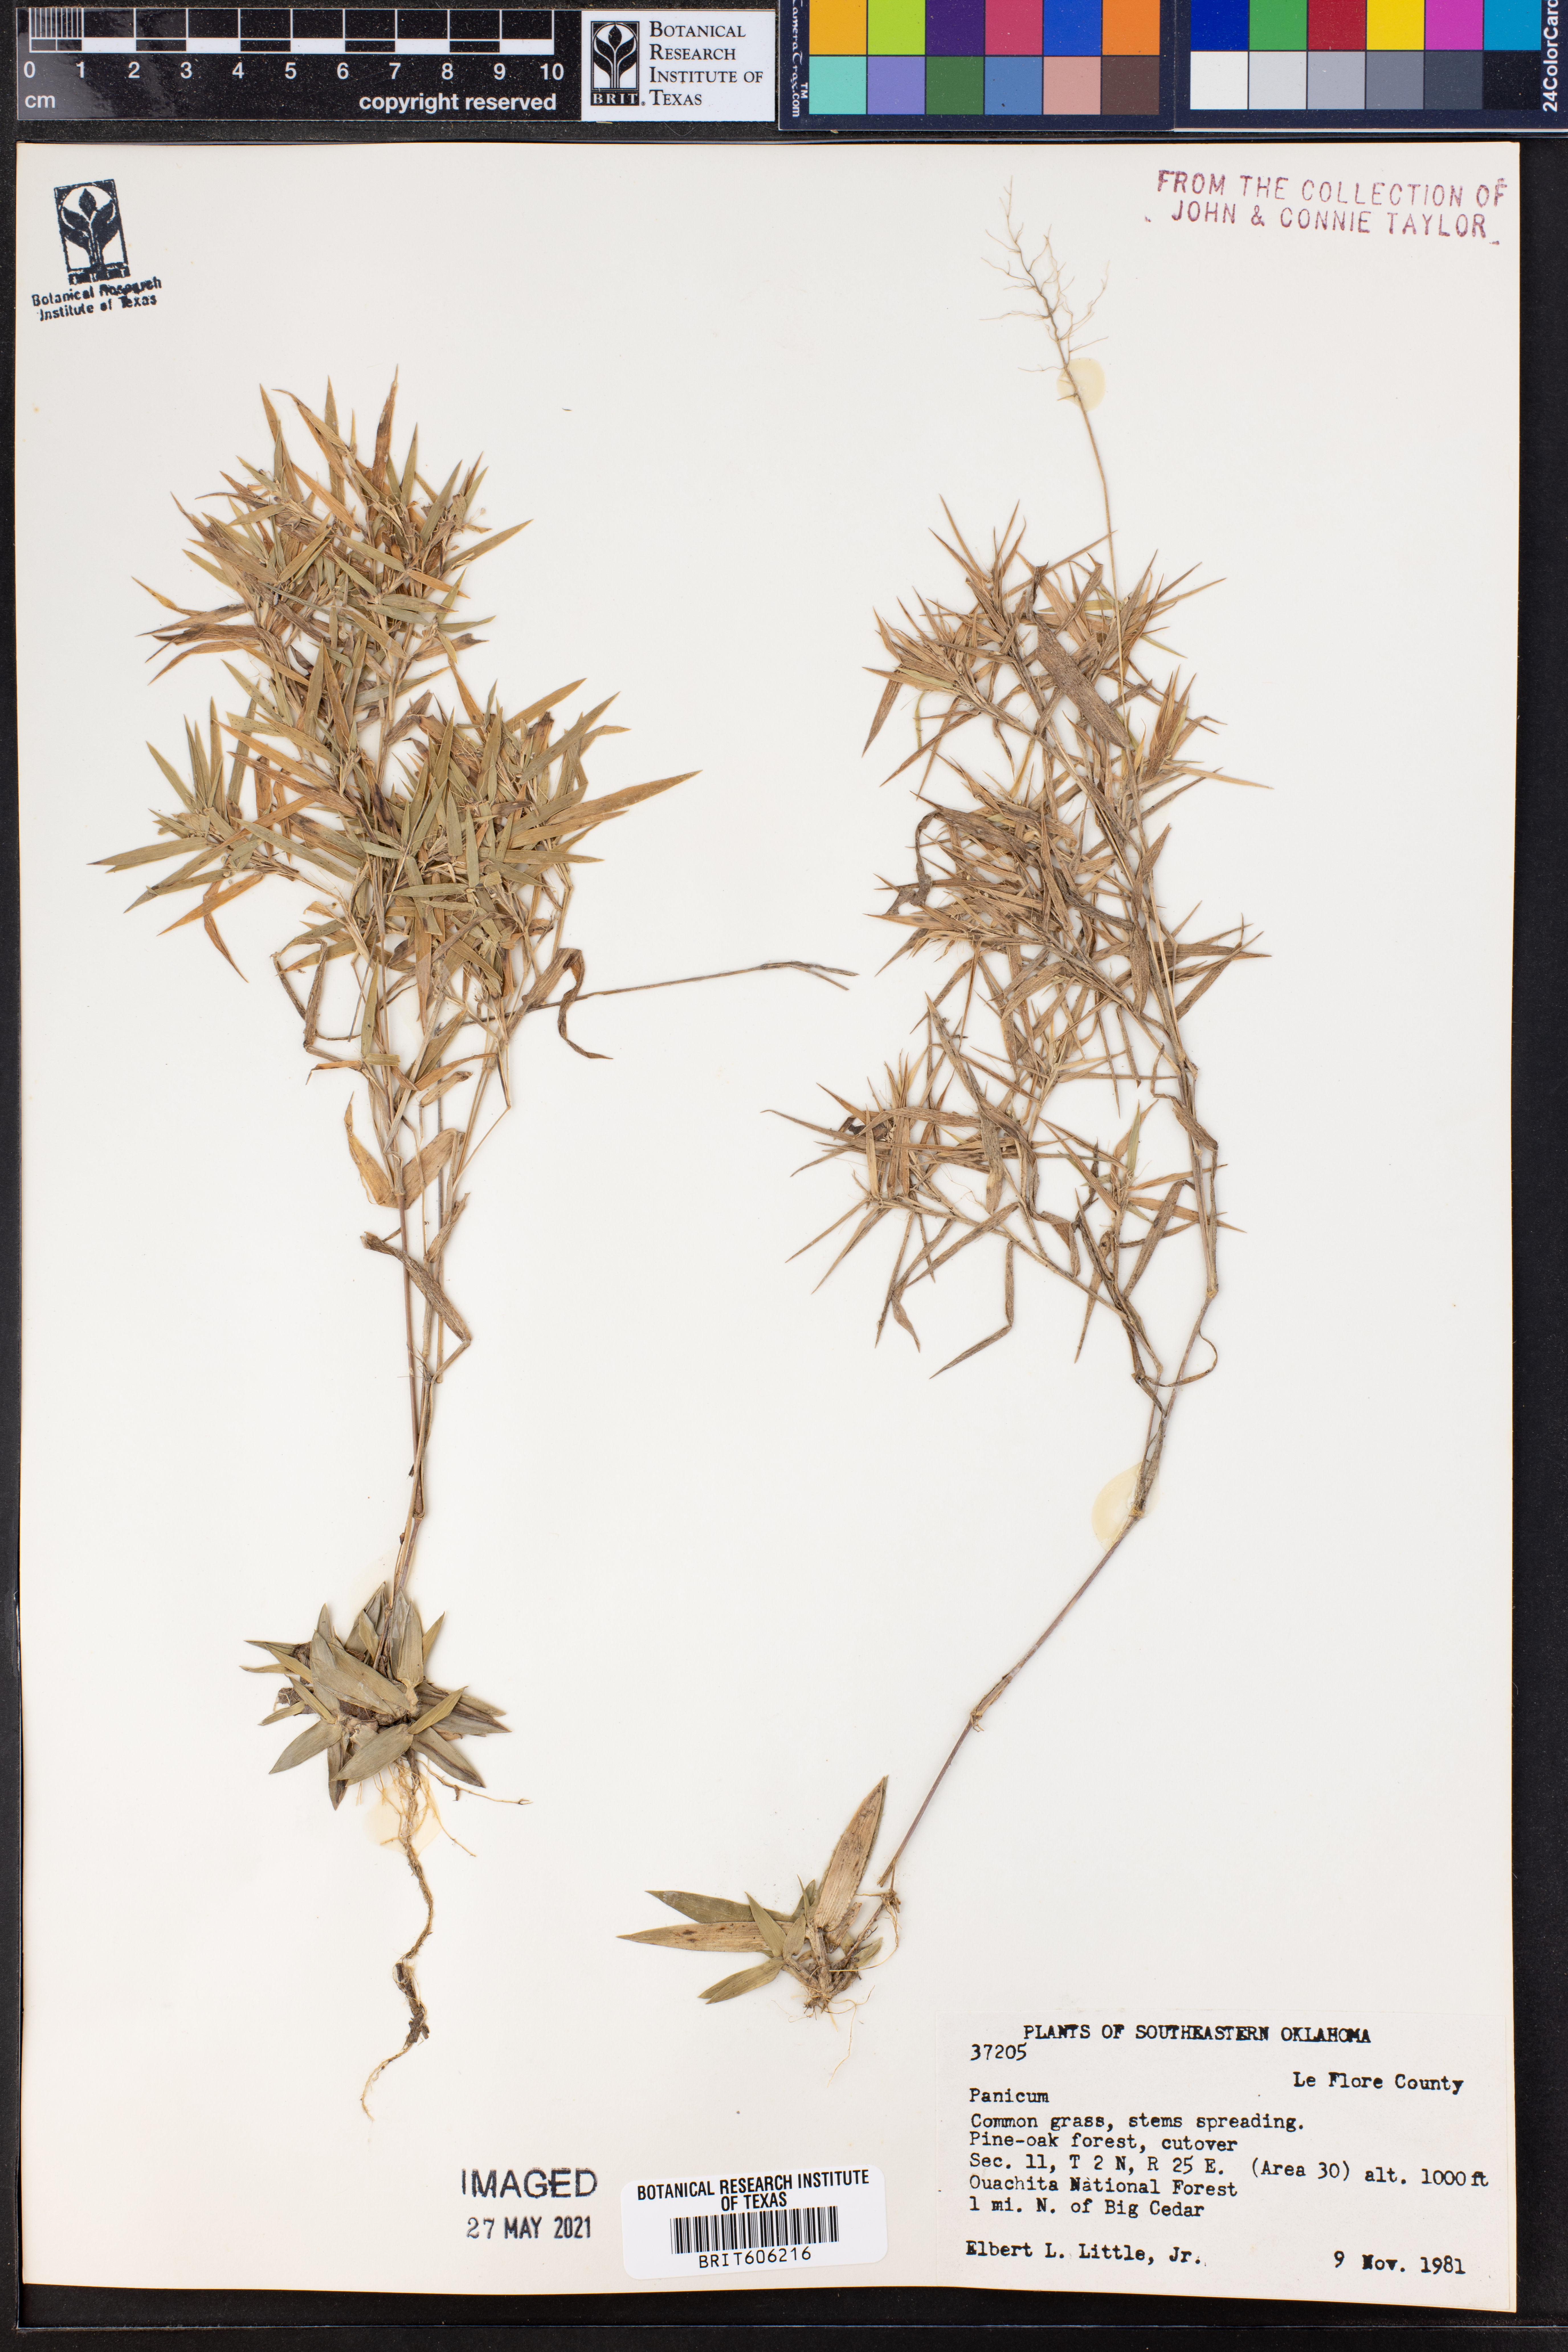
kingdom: Plantae
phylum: Tracheophyta
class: Liliopsida
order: Poales
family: Poaceae
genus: Panicum
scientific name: Panicum
